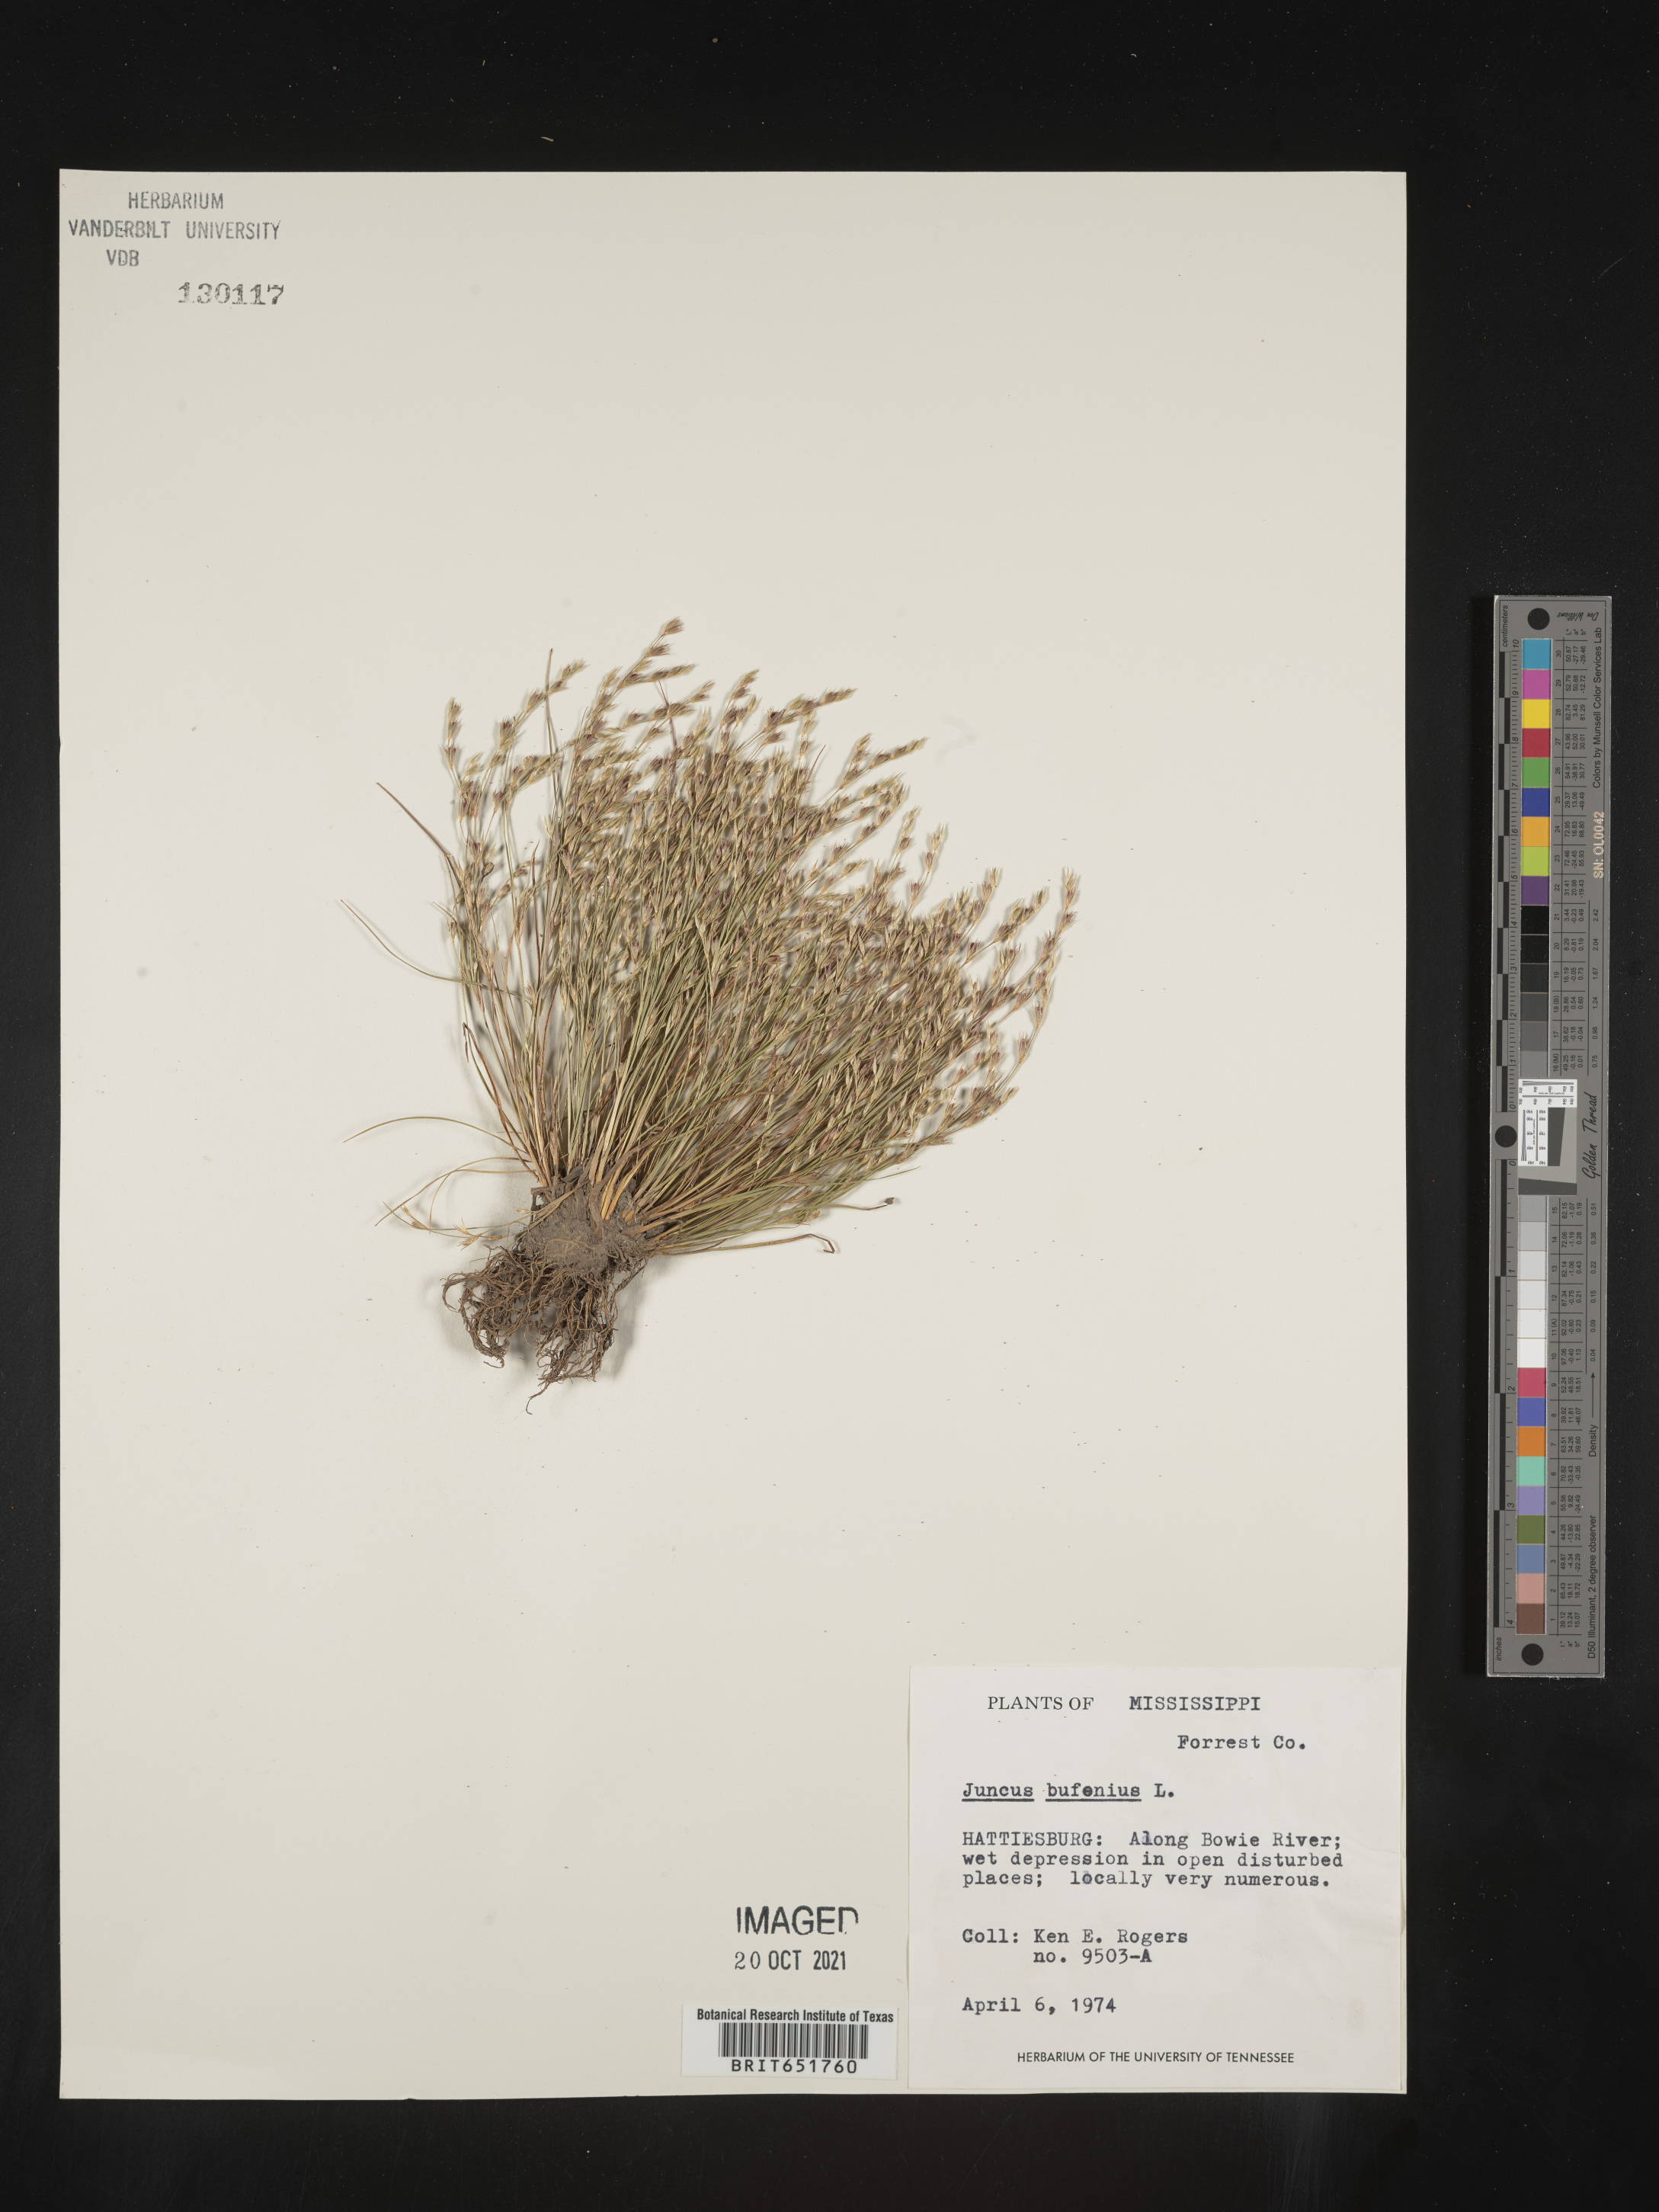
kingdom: Plantae
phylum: Tracheophyta
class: Liliopsida
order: Poales
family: Juncaceae
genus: Juncus
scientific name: Juncus bufonius
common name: Toad rush
